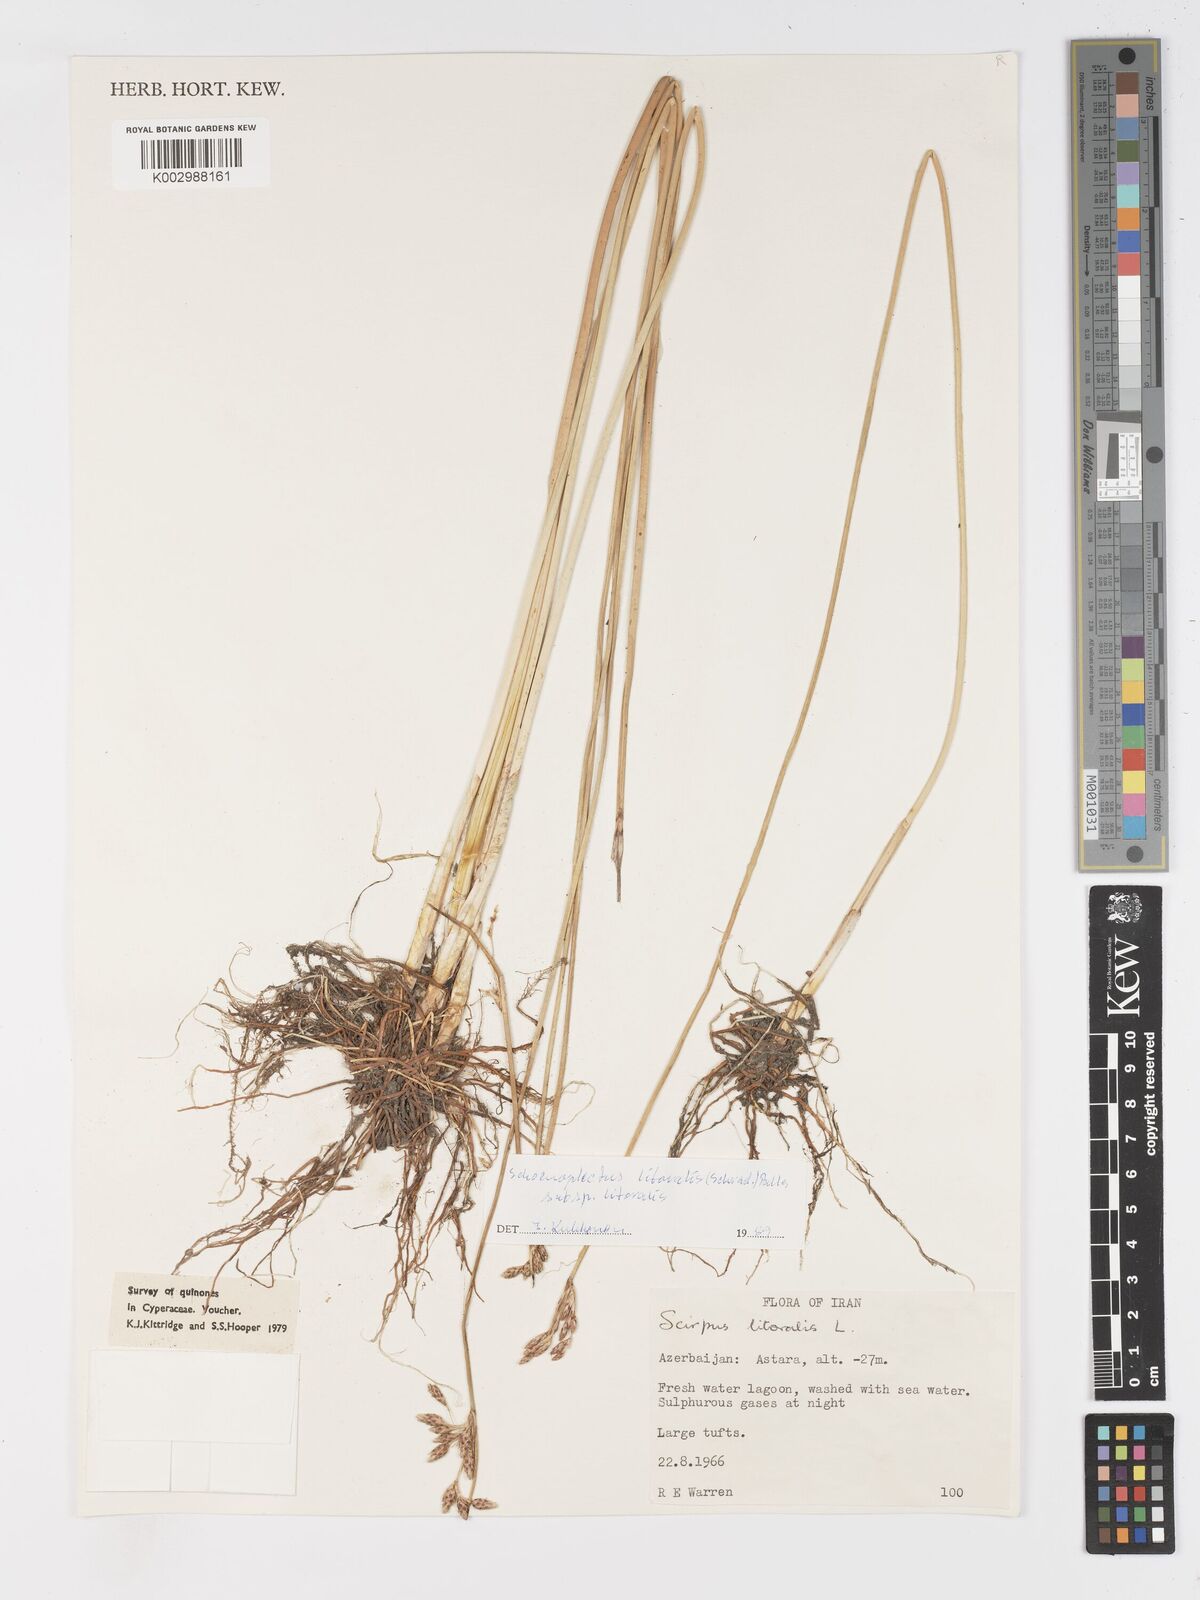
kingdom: Plantae
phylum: Tracheophyta
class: Liliopsida
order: Poales
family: Cyperaceae
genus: Schoenoplectus
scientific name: Schoenoplectus litoralis
